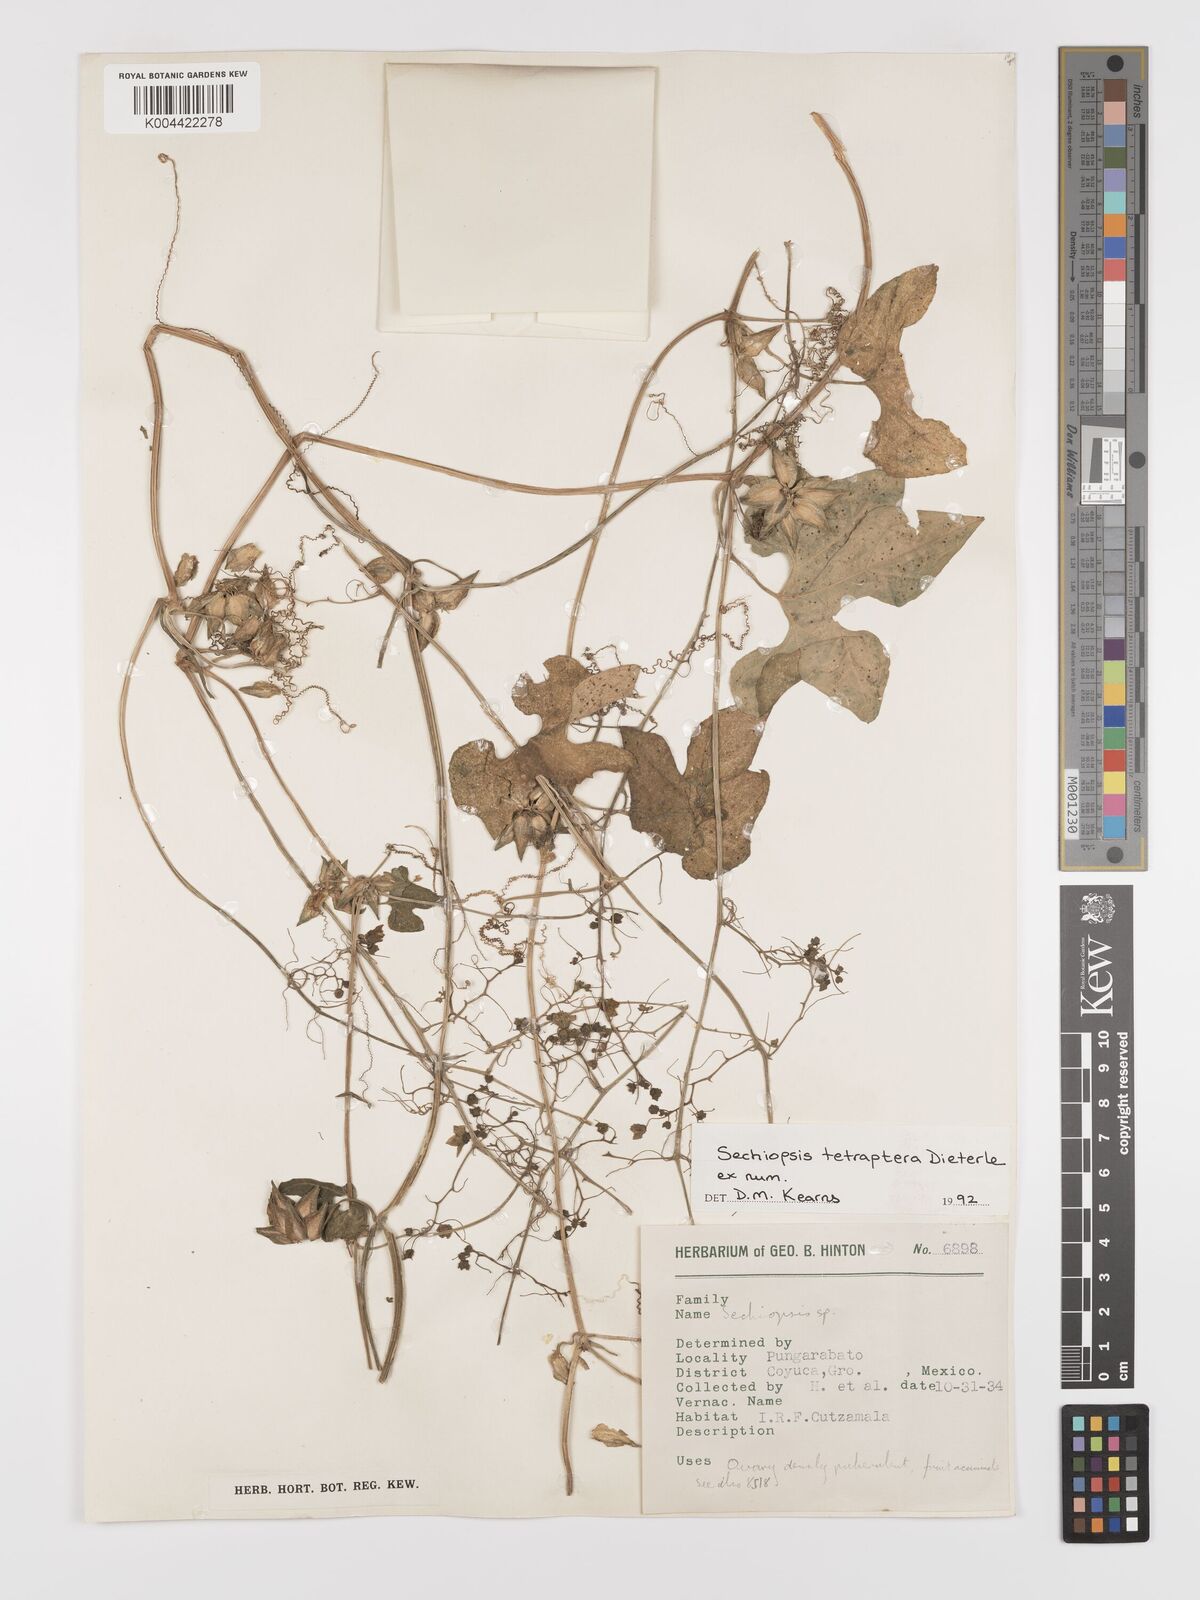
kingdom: Plantae
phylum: Tracheophyta
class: Magnoliopsida
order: Cucurbitales
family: Cucurbitaceae
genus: Sechiopsis
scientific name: Sechiopsis tetraptera
